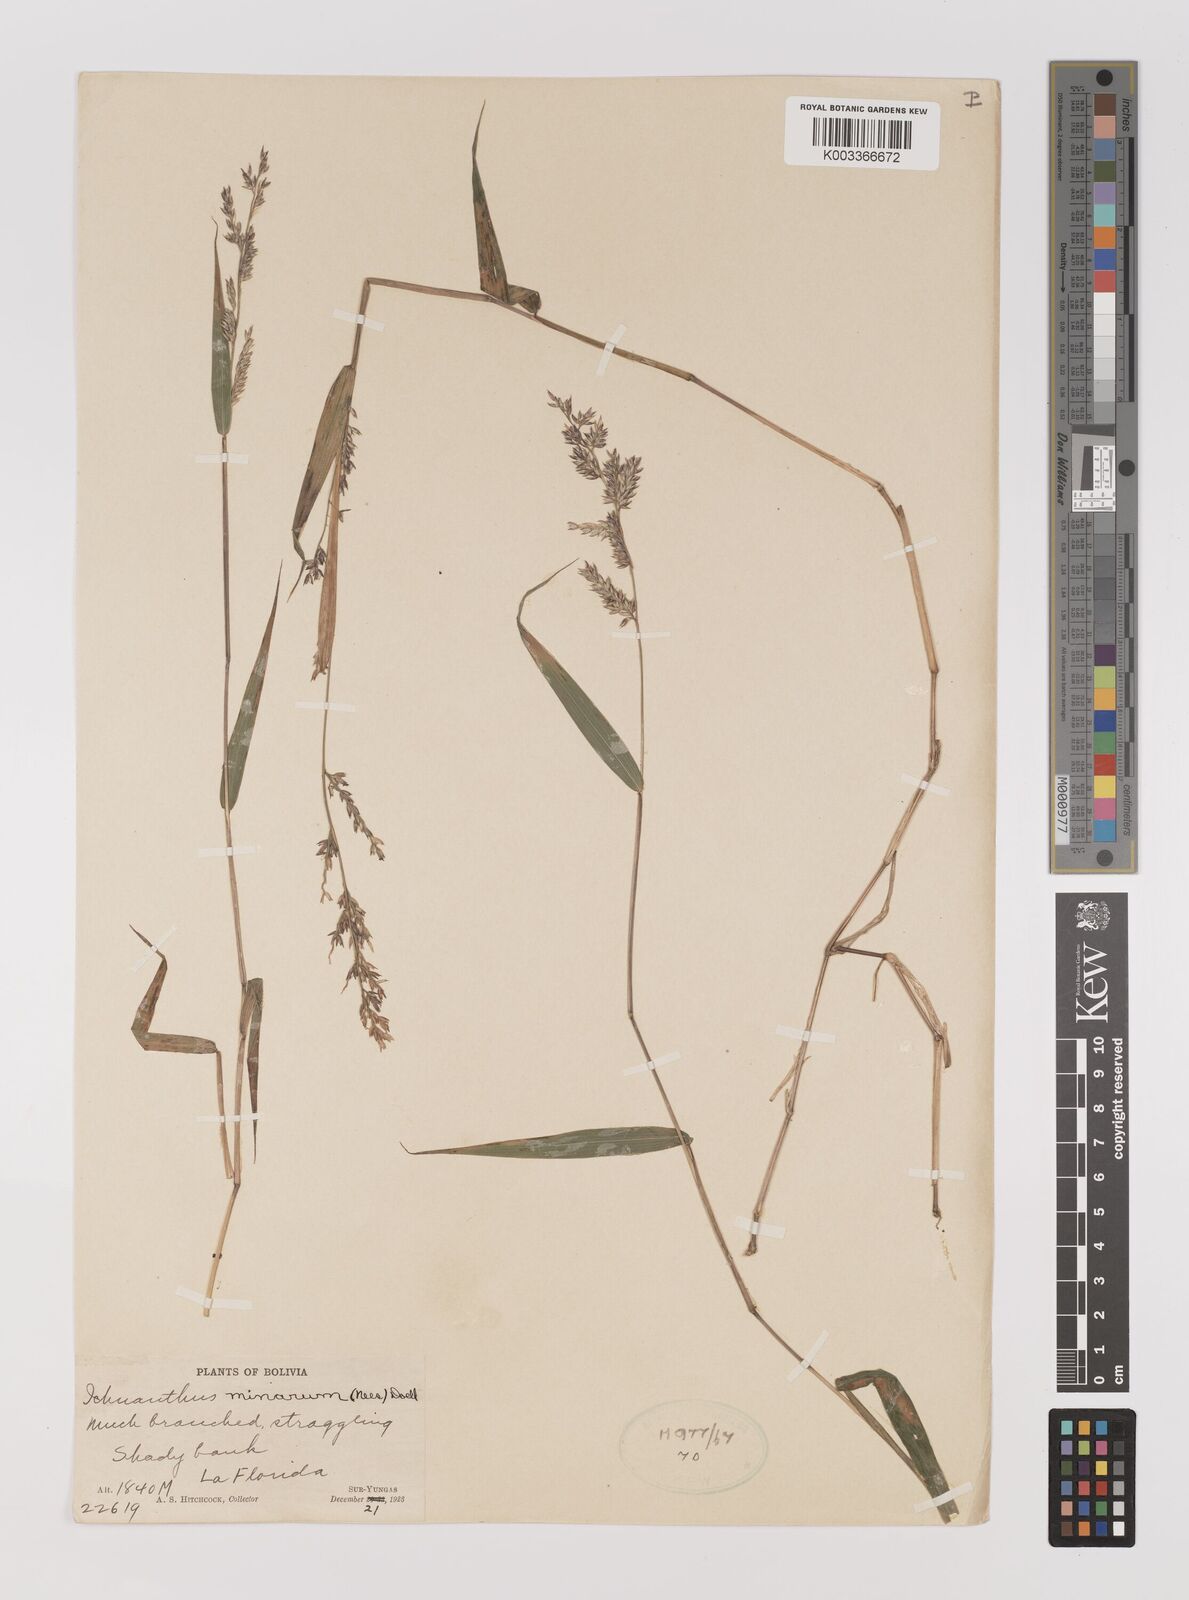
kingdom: Plantae
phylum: Tracheophyta
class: Liliopsida
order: Poales
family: Poaceae
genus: Oedochloa
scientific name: Oedochloa minarum
